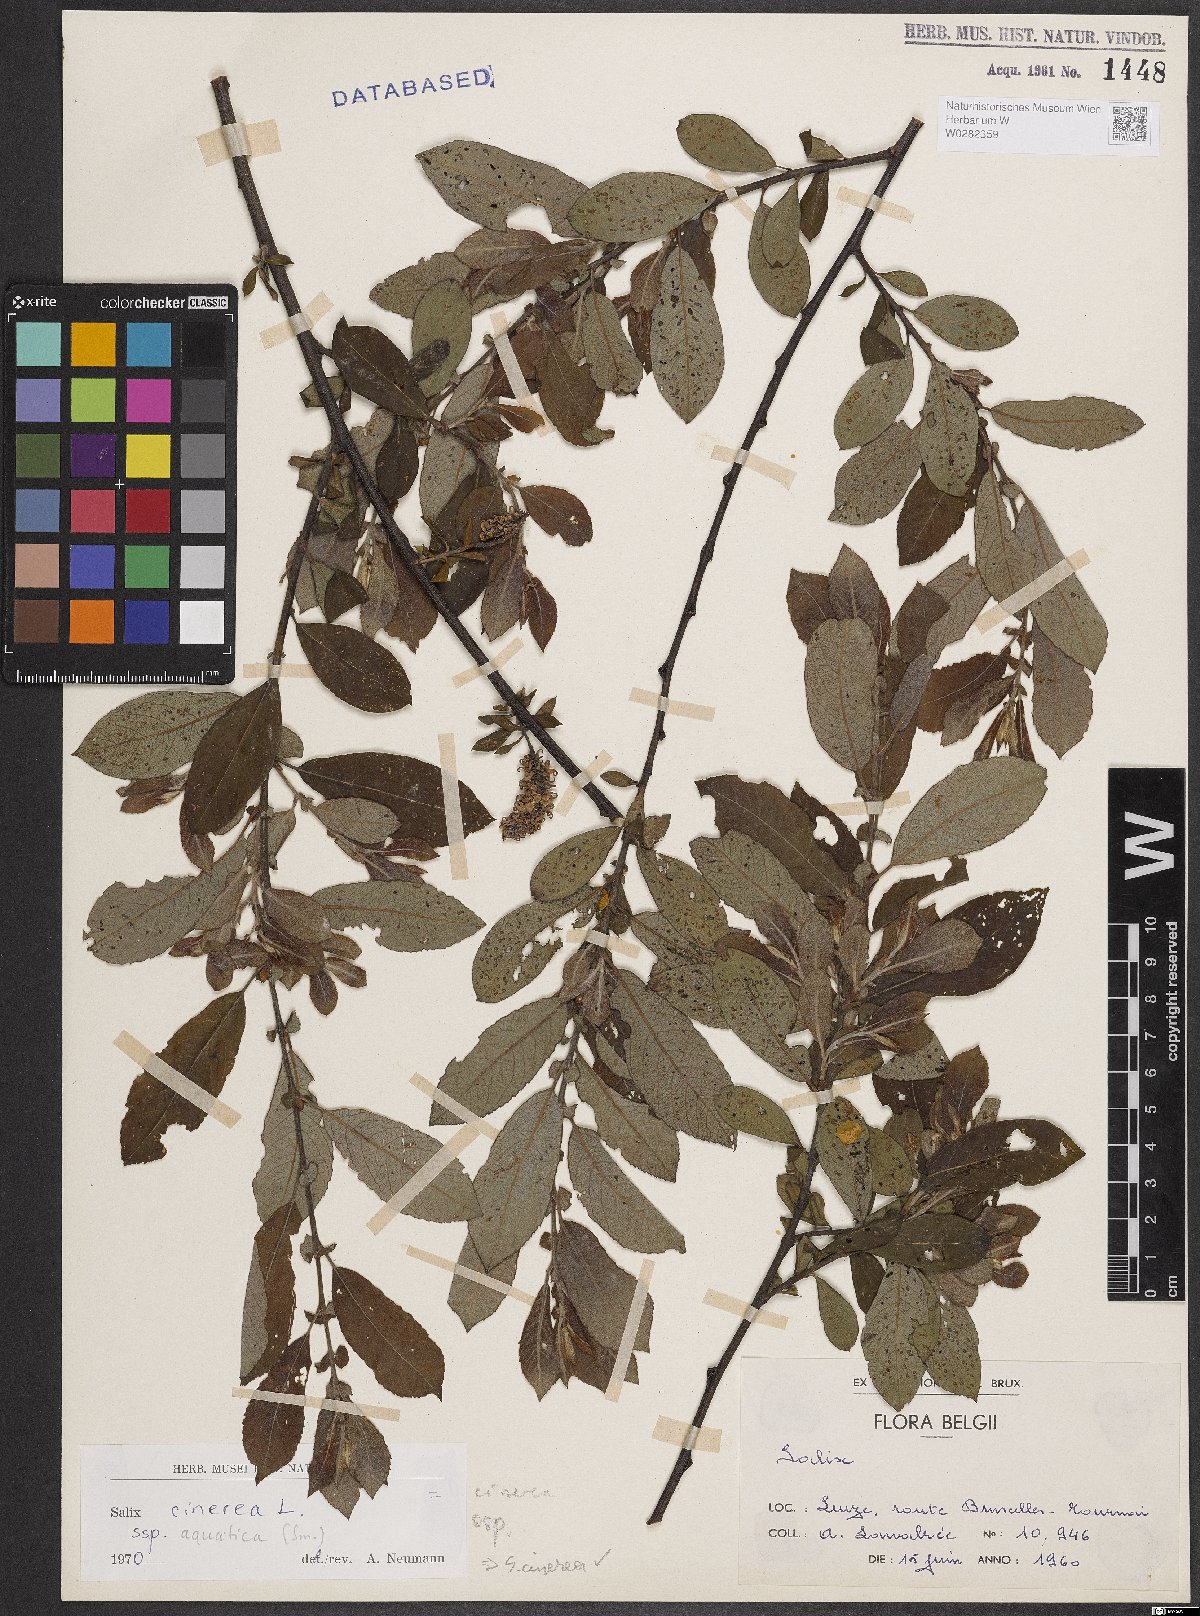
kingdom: Plantae
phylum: Tracheophyta
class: Magnoliopsida
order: Malpighiales
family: Salicaceae
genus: Salix
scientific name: Salix cinerea
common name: Common sallow
